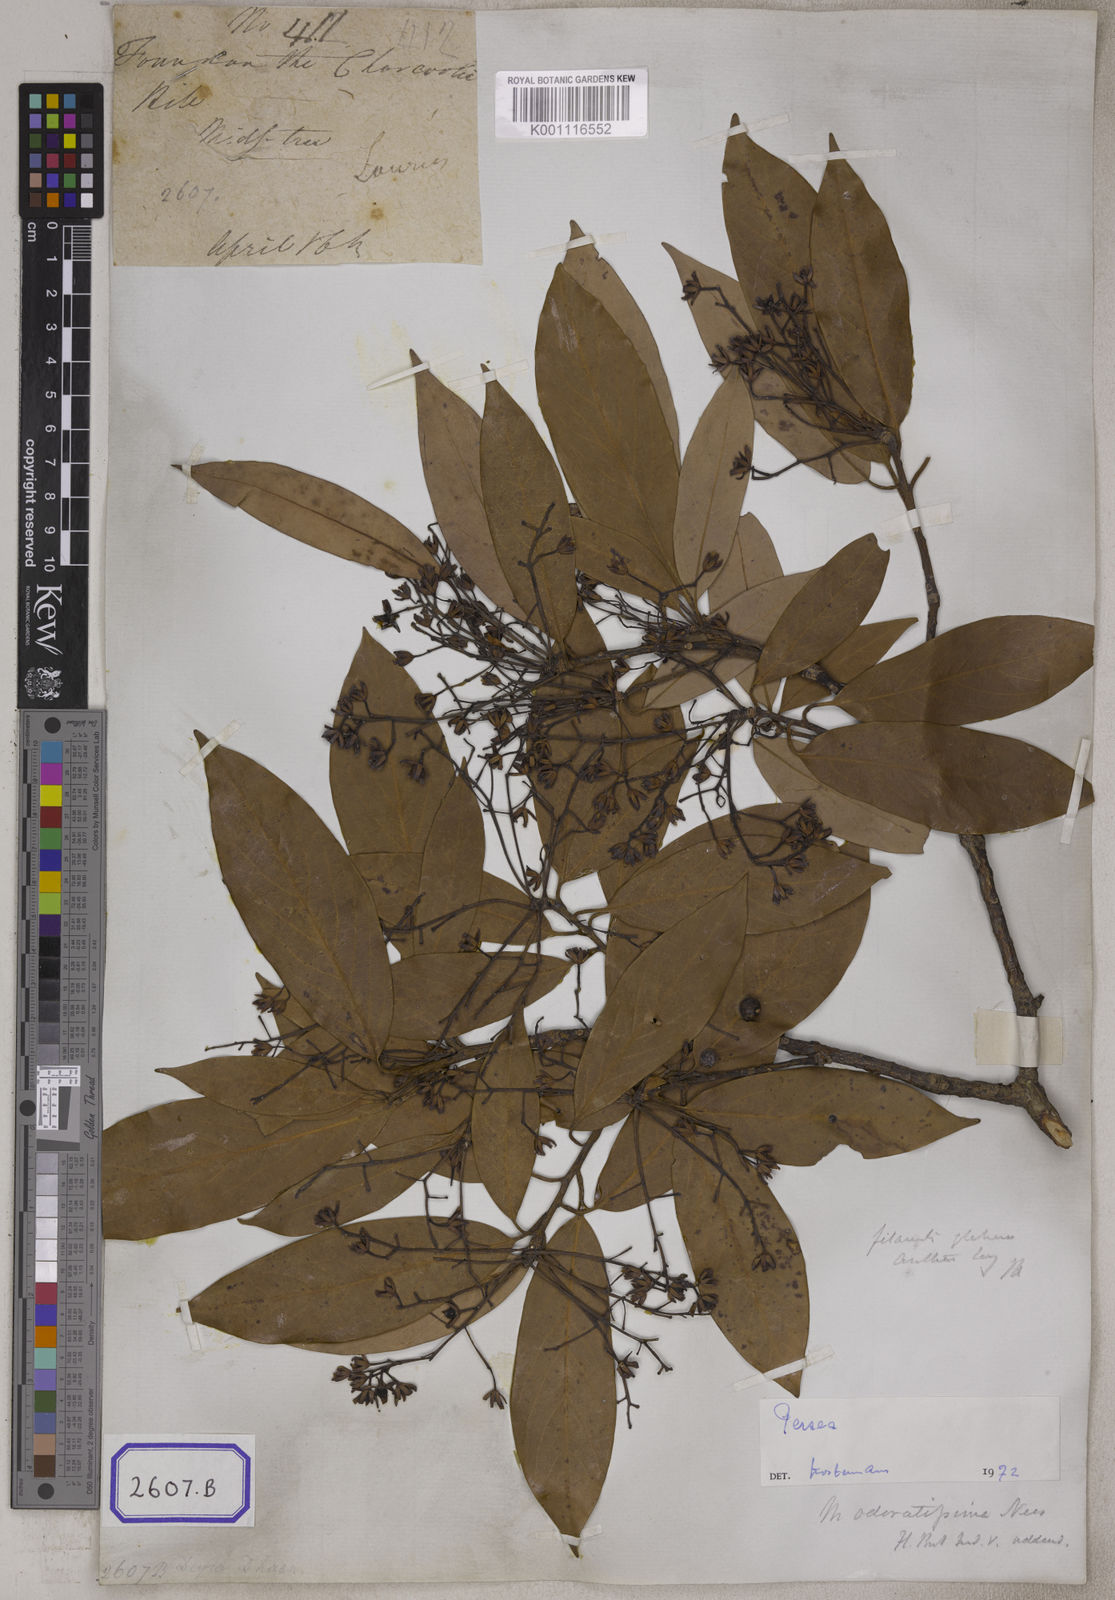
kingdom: Plantae
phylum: Tracheophyta
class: Magnoliopsida
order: Laurales
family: Lauraceae
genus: Machilus
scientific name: Machilus odoratissimus
